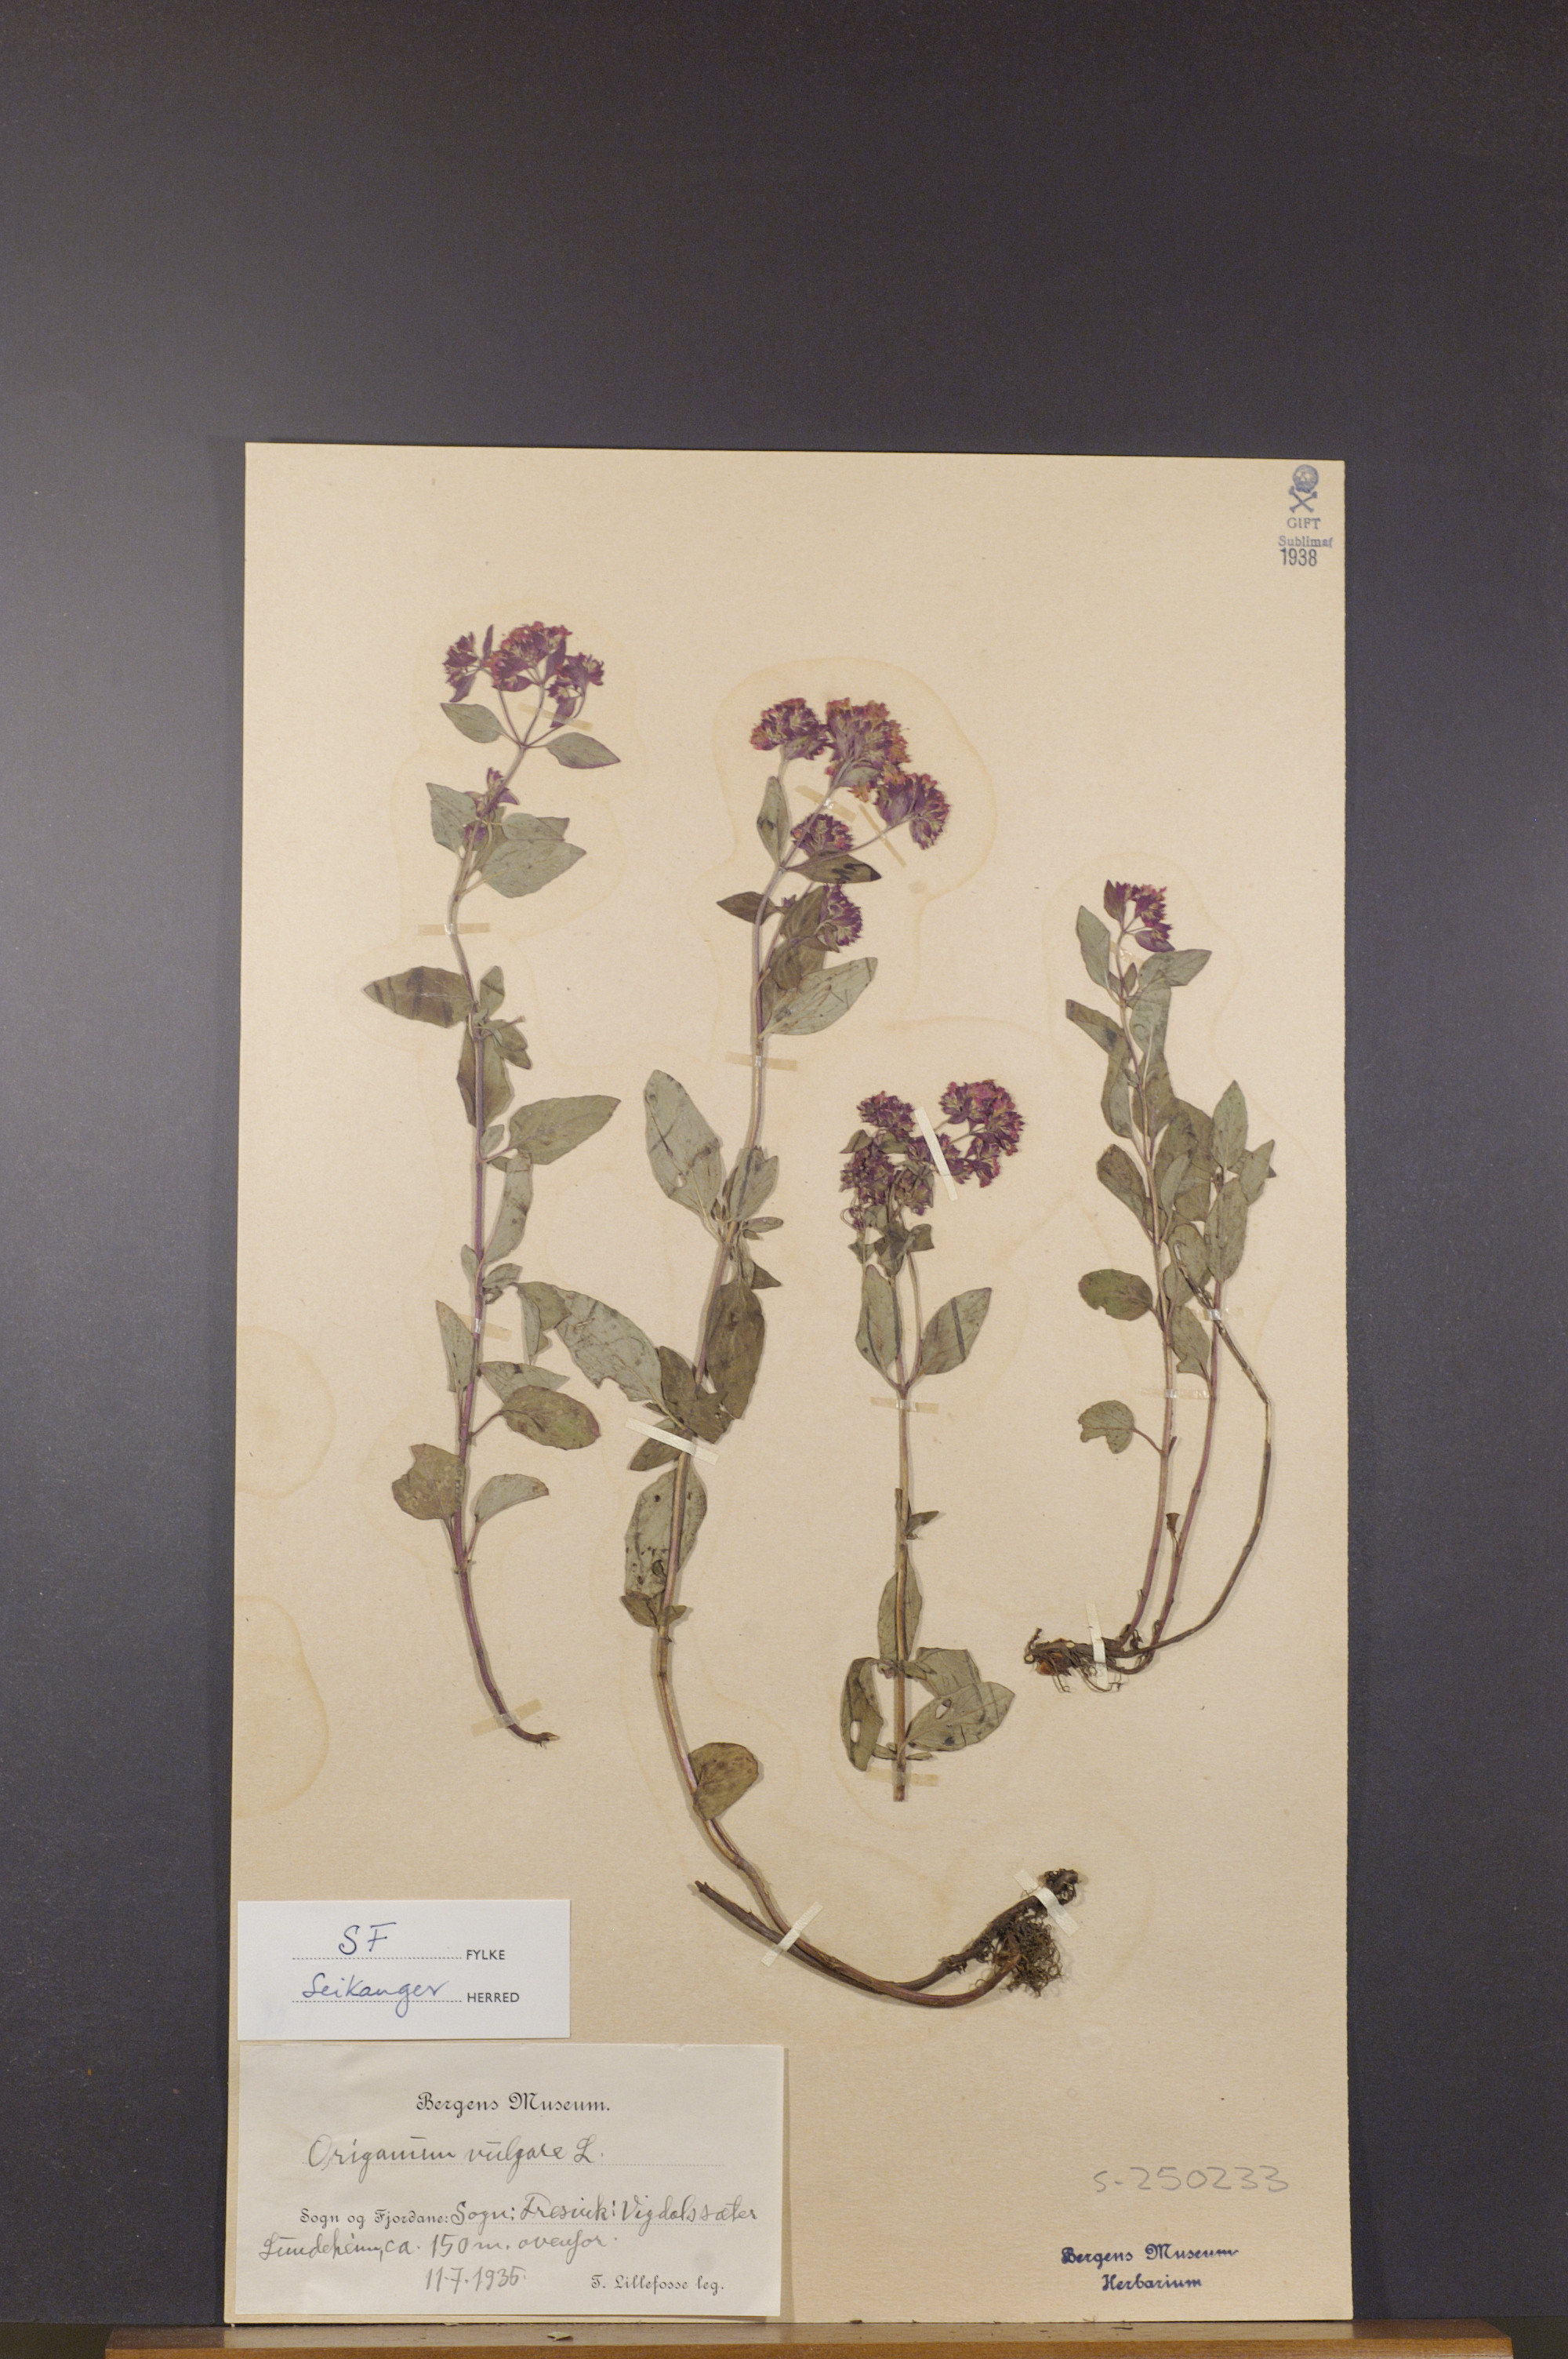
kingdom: Plantae
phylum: Tracheophyta
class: Magnoliopsida
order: Lamiales
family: Lamiaceae
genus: Origanum
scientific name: Origanum vulgare
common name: Wild marjoram
